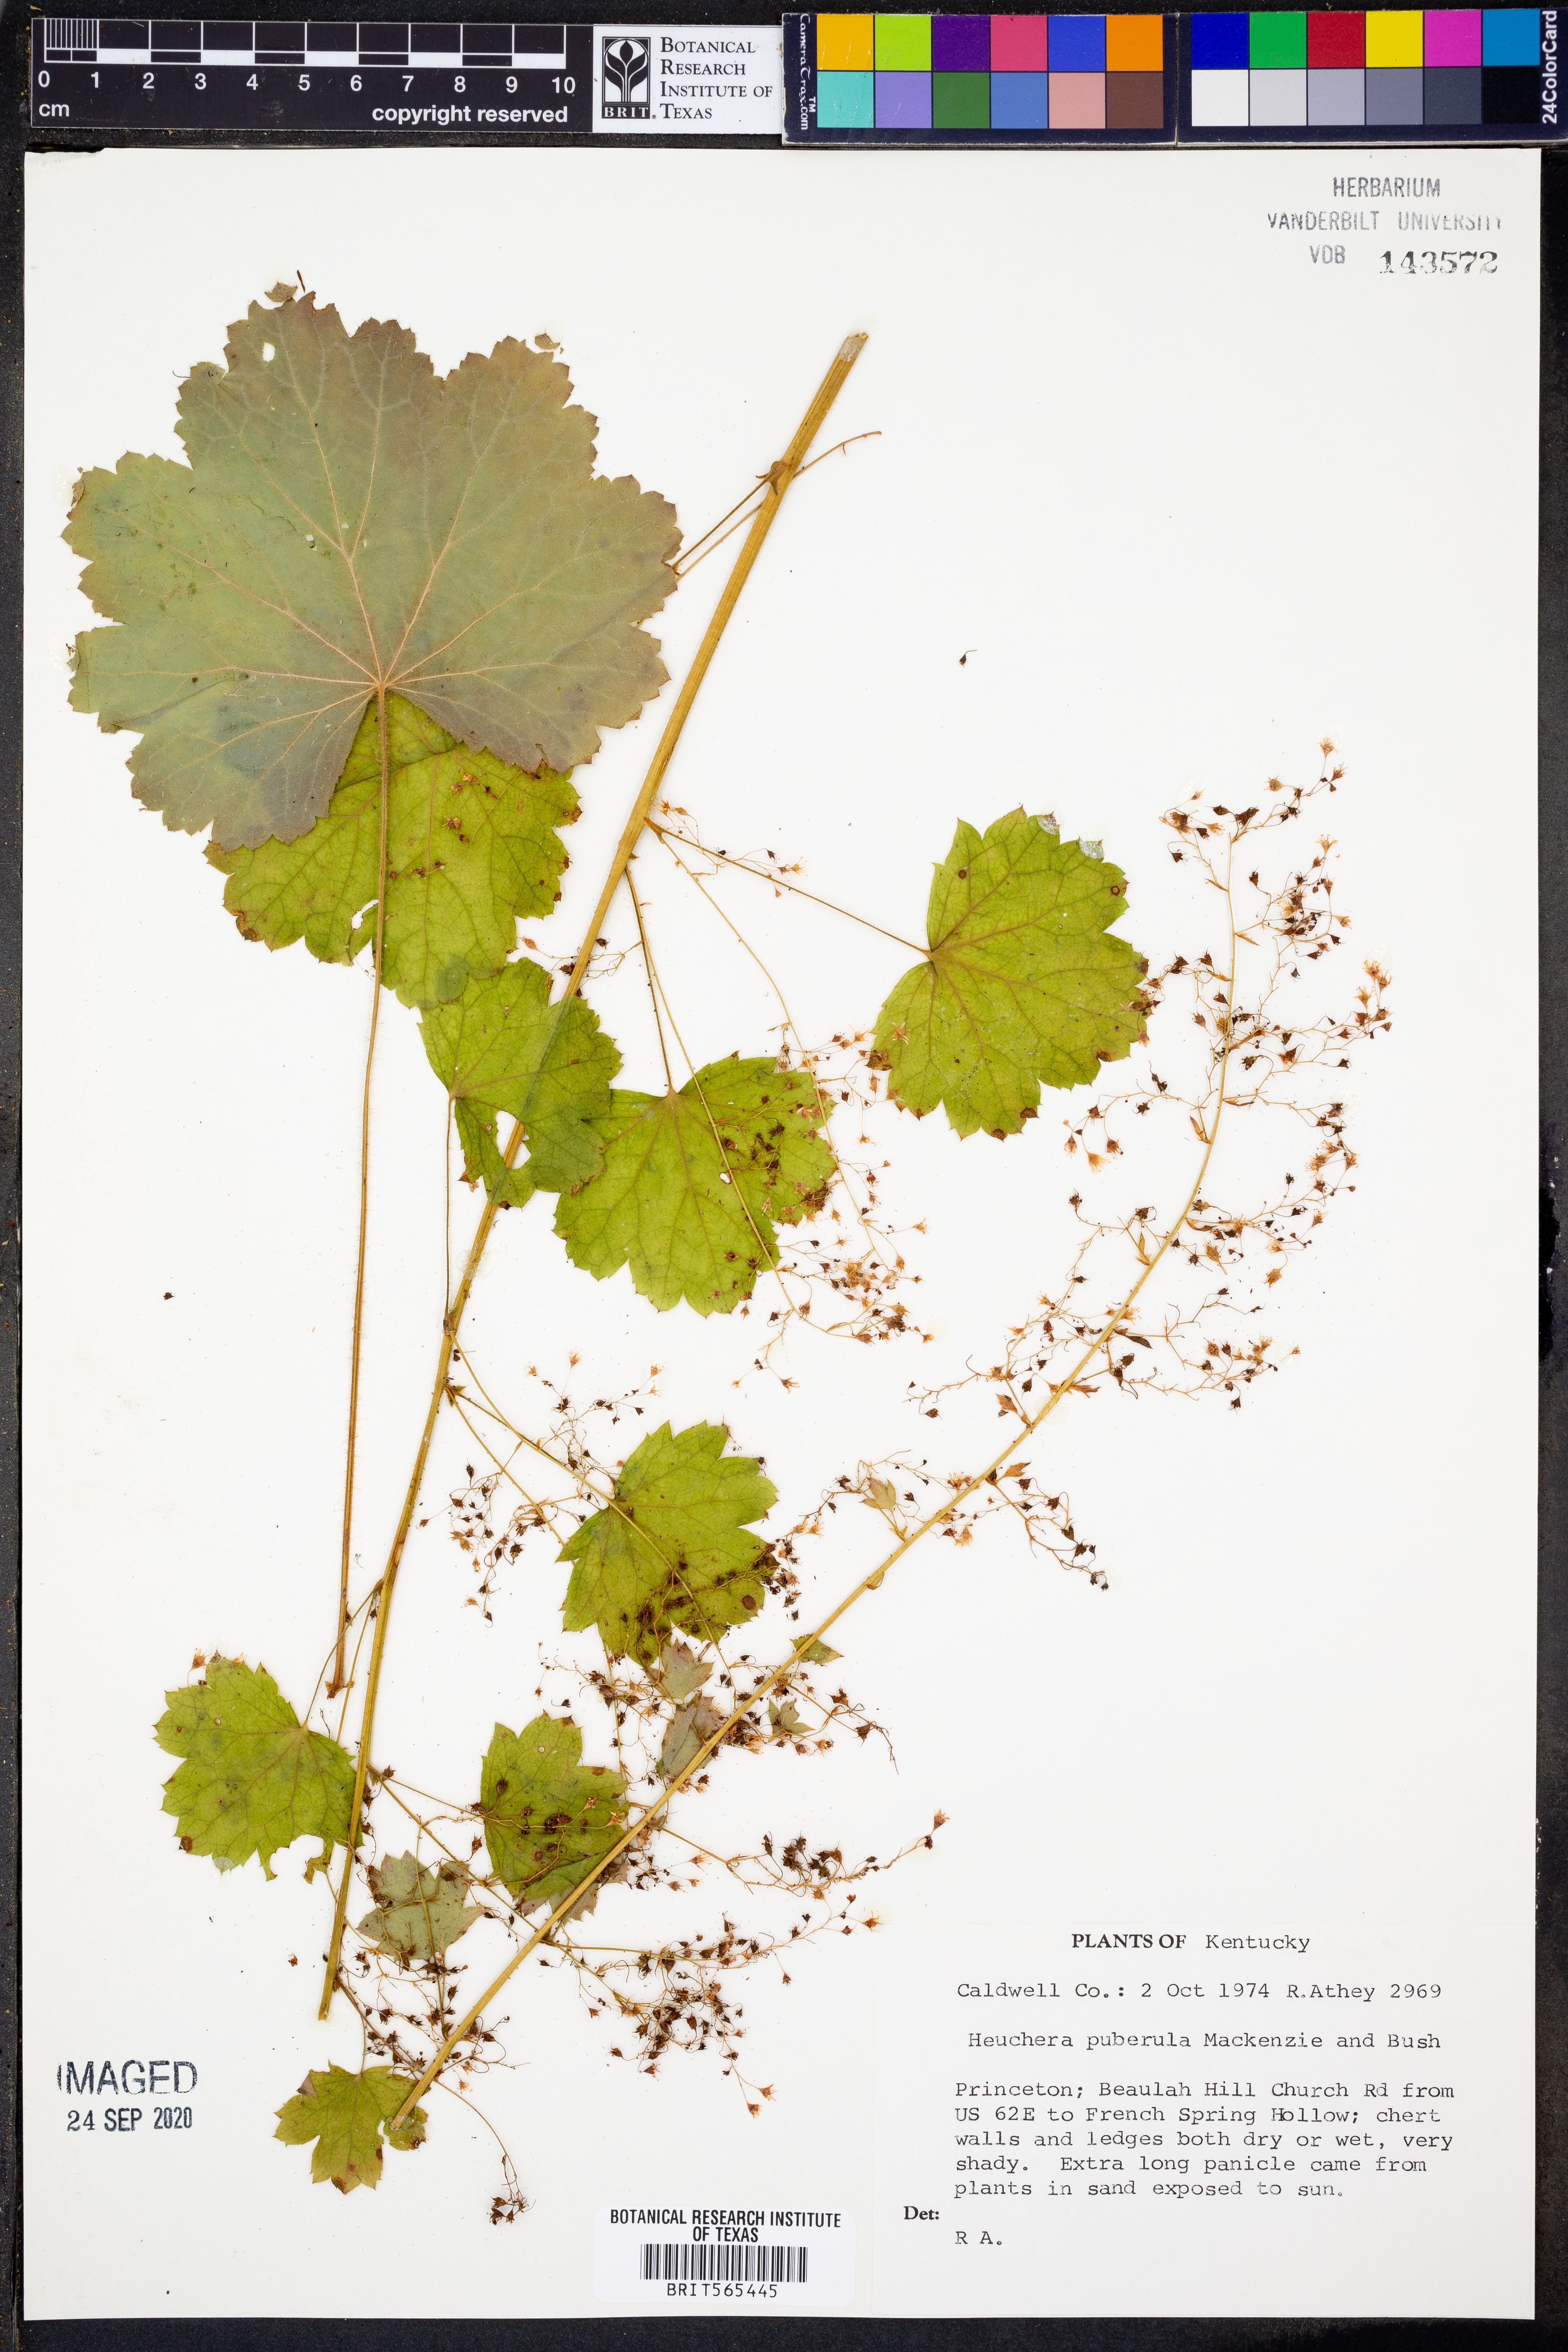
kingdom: Plantae
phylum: Tracheophyta
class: Magnoliopsida
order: Saxifragales
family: Saxifragaceae
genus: Heuchera
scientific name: Heuchera puberula
